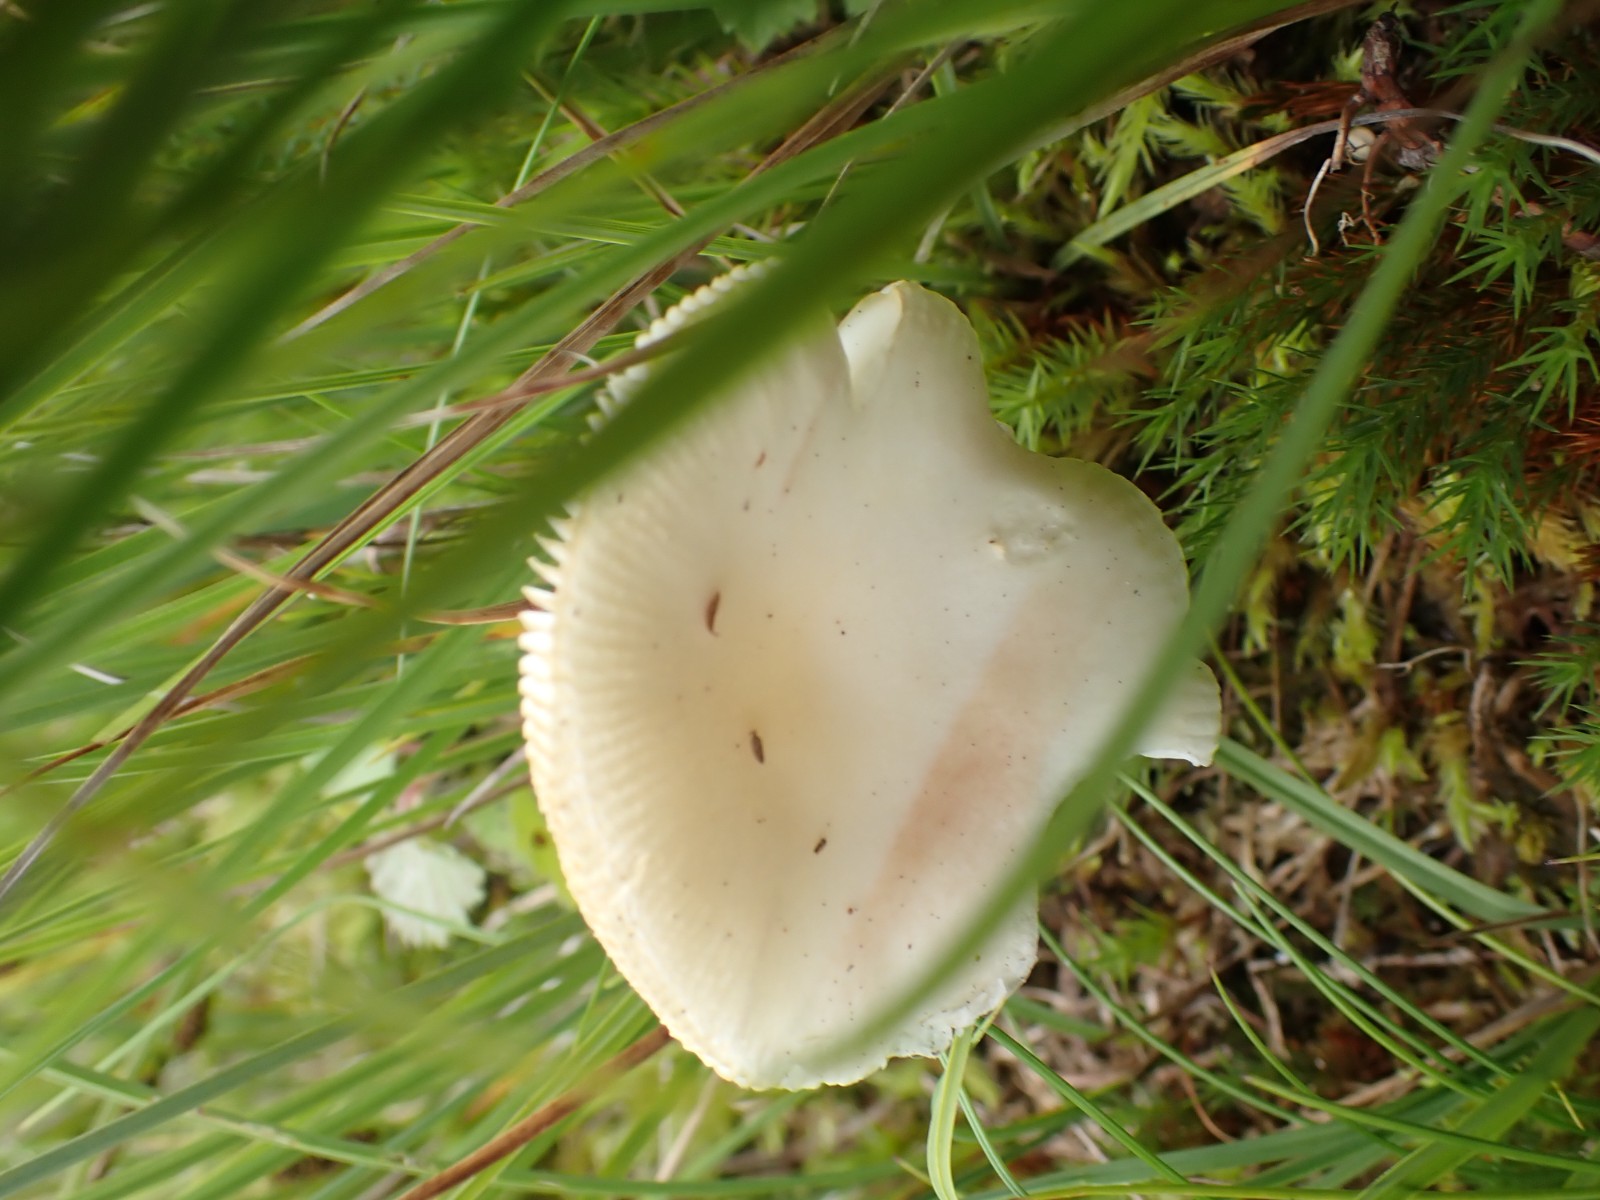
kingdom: Fungi
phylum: Basidiomycota
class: Agaricomycetes
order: Russulales
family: Russulaceae
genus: Russula
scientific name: Russula betularum
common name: bleg gift-skørhat
